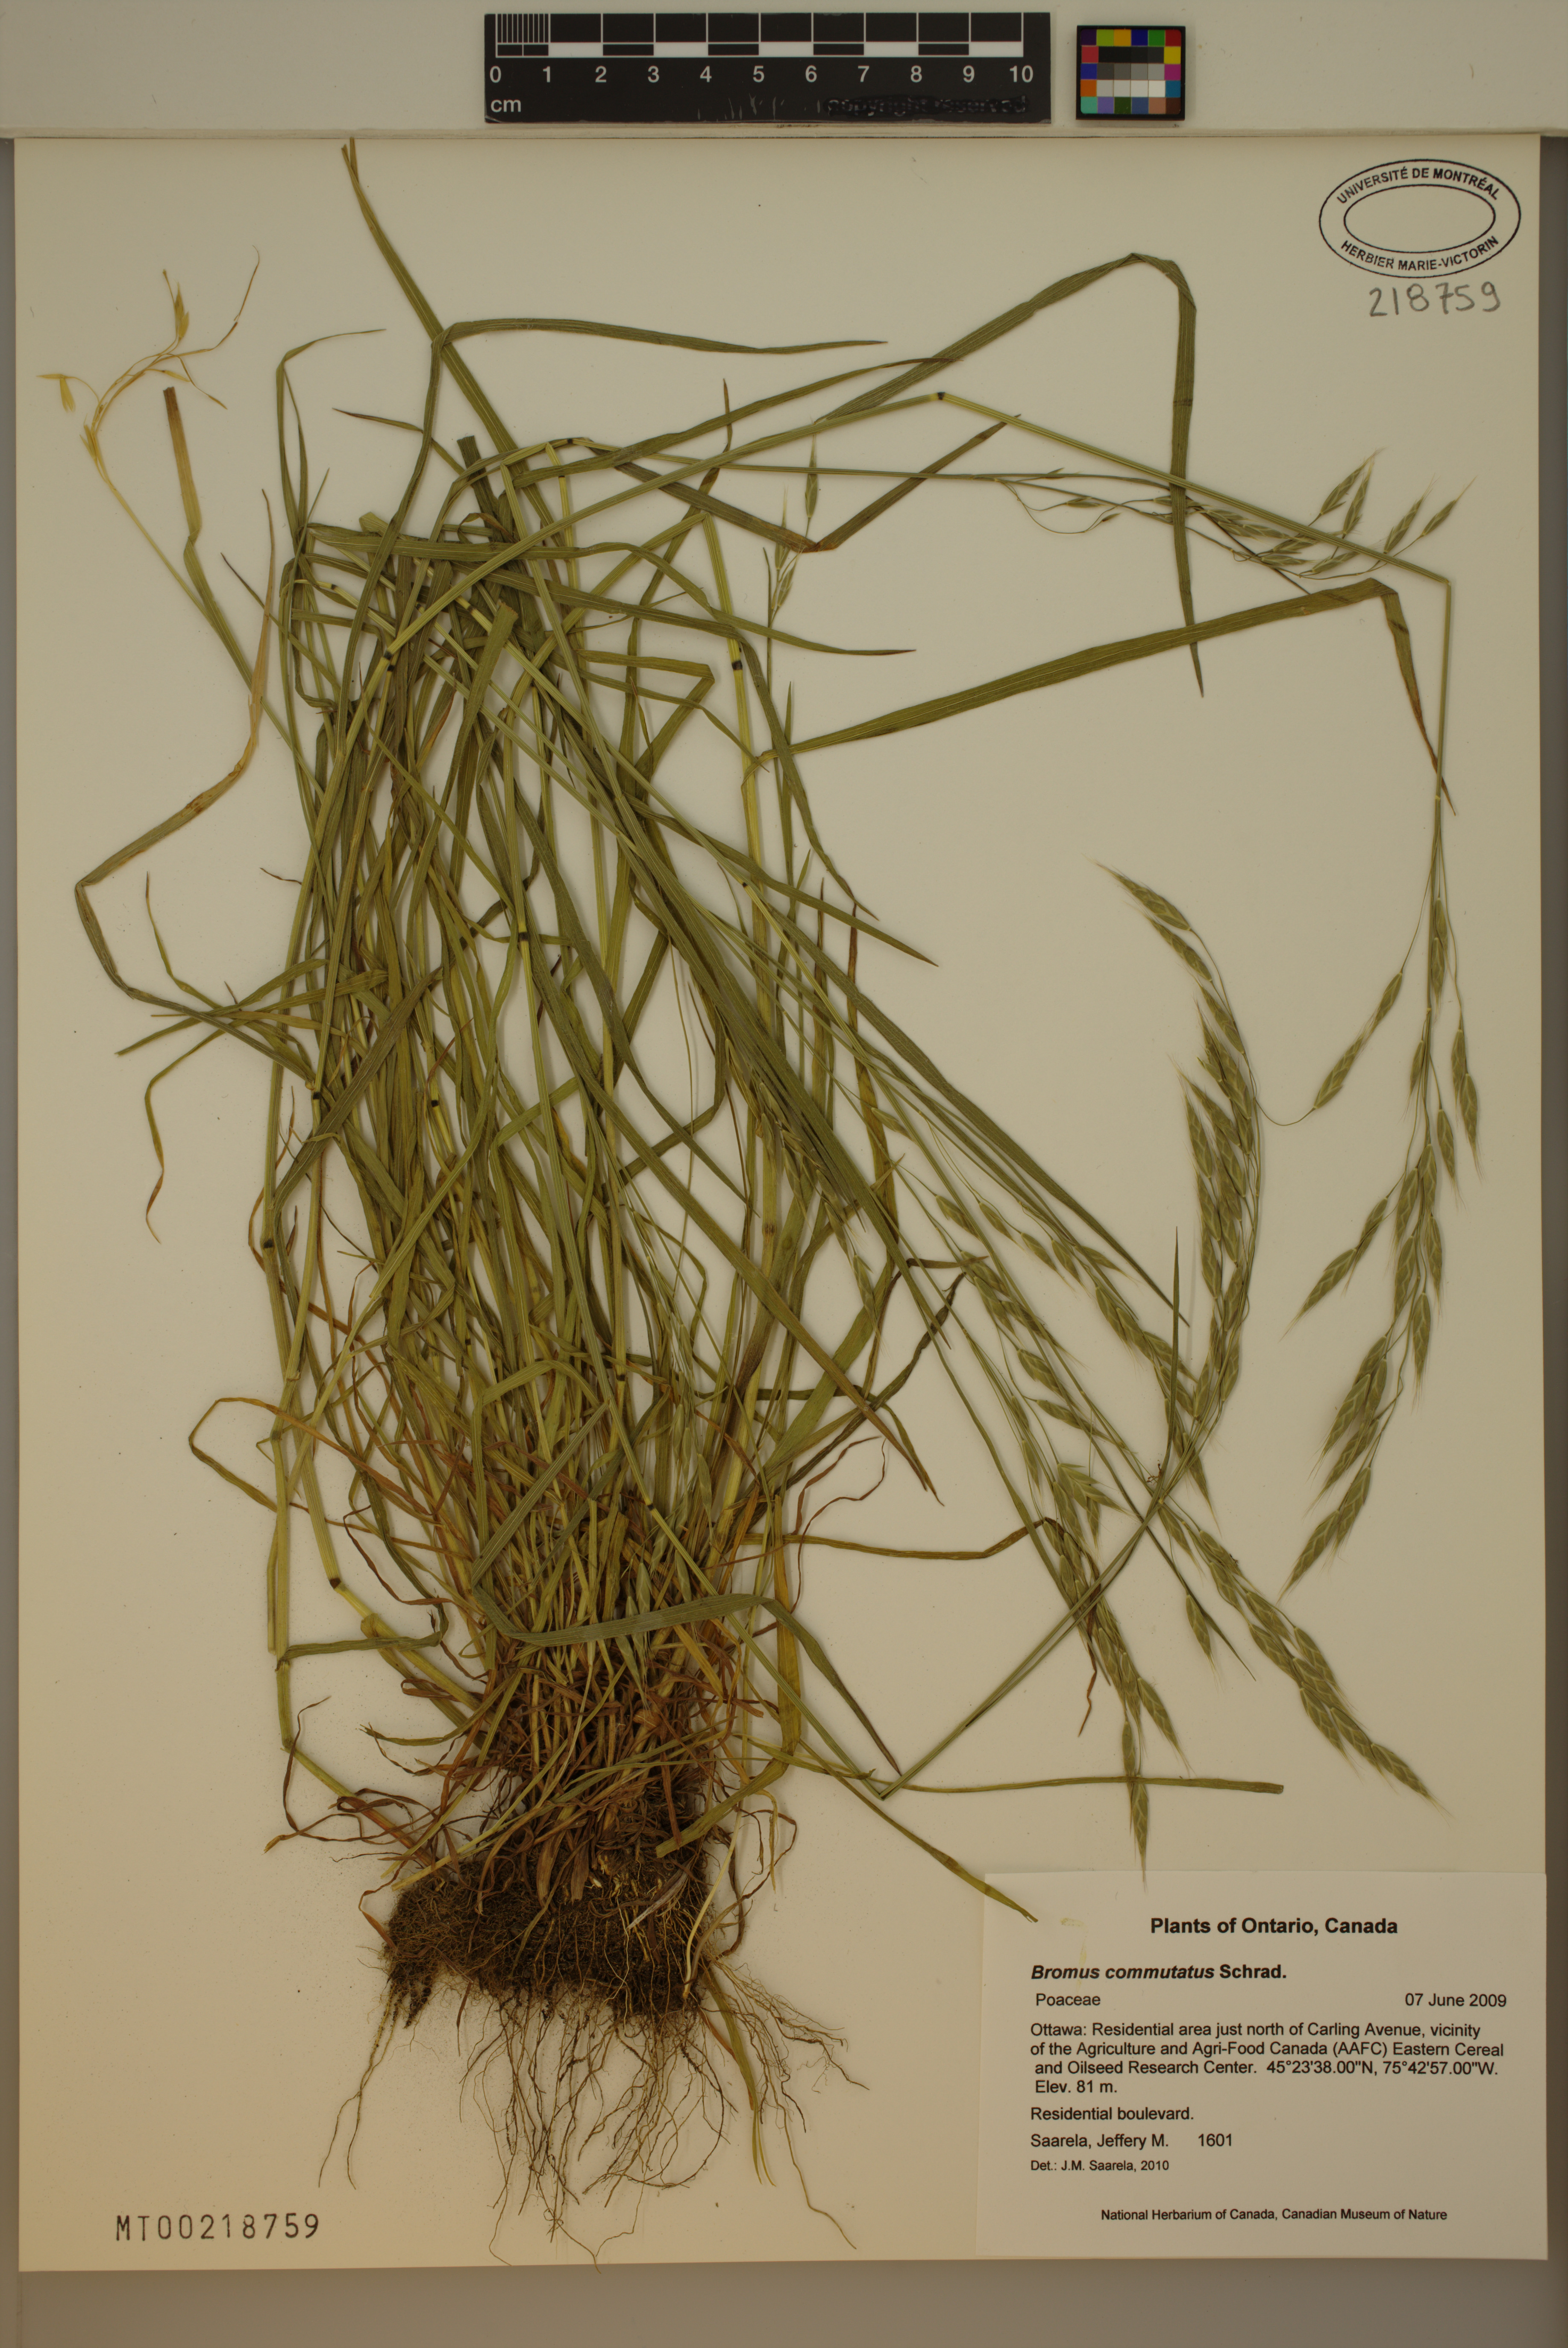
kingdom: Plantae
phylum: Tracheophyta
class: Liliopsida
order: Poales
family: Poaceae
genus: Bromus
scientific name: Bromus commutatus
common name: Meadow brome
